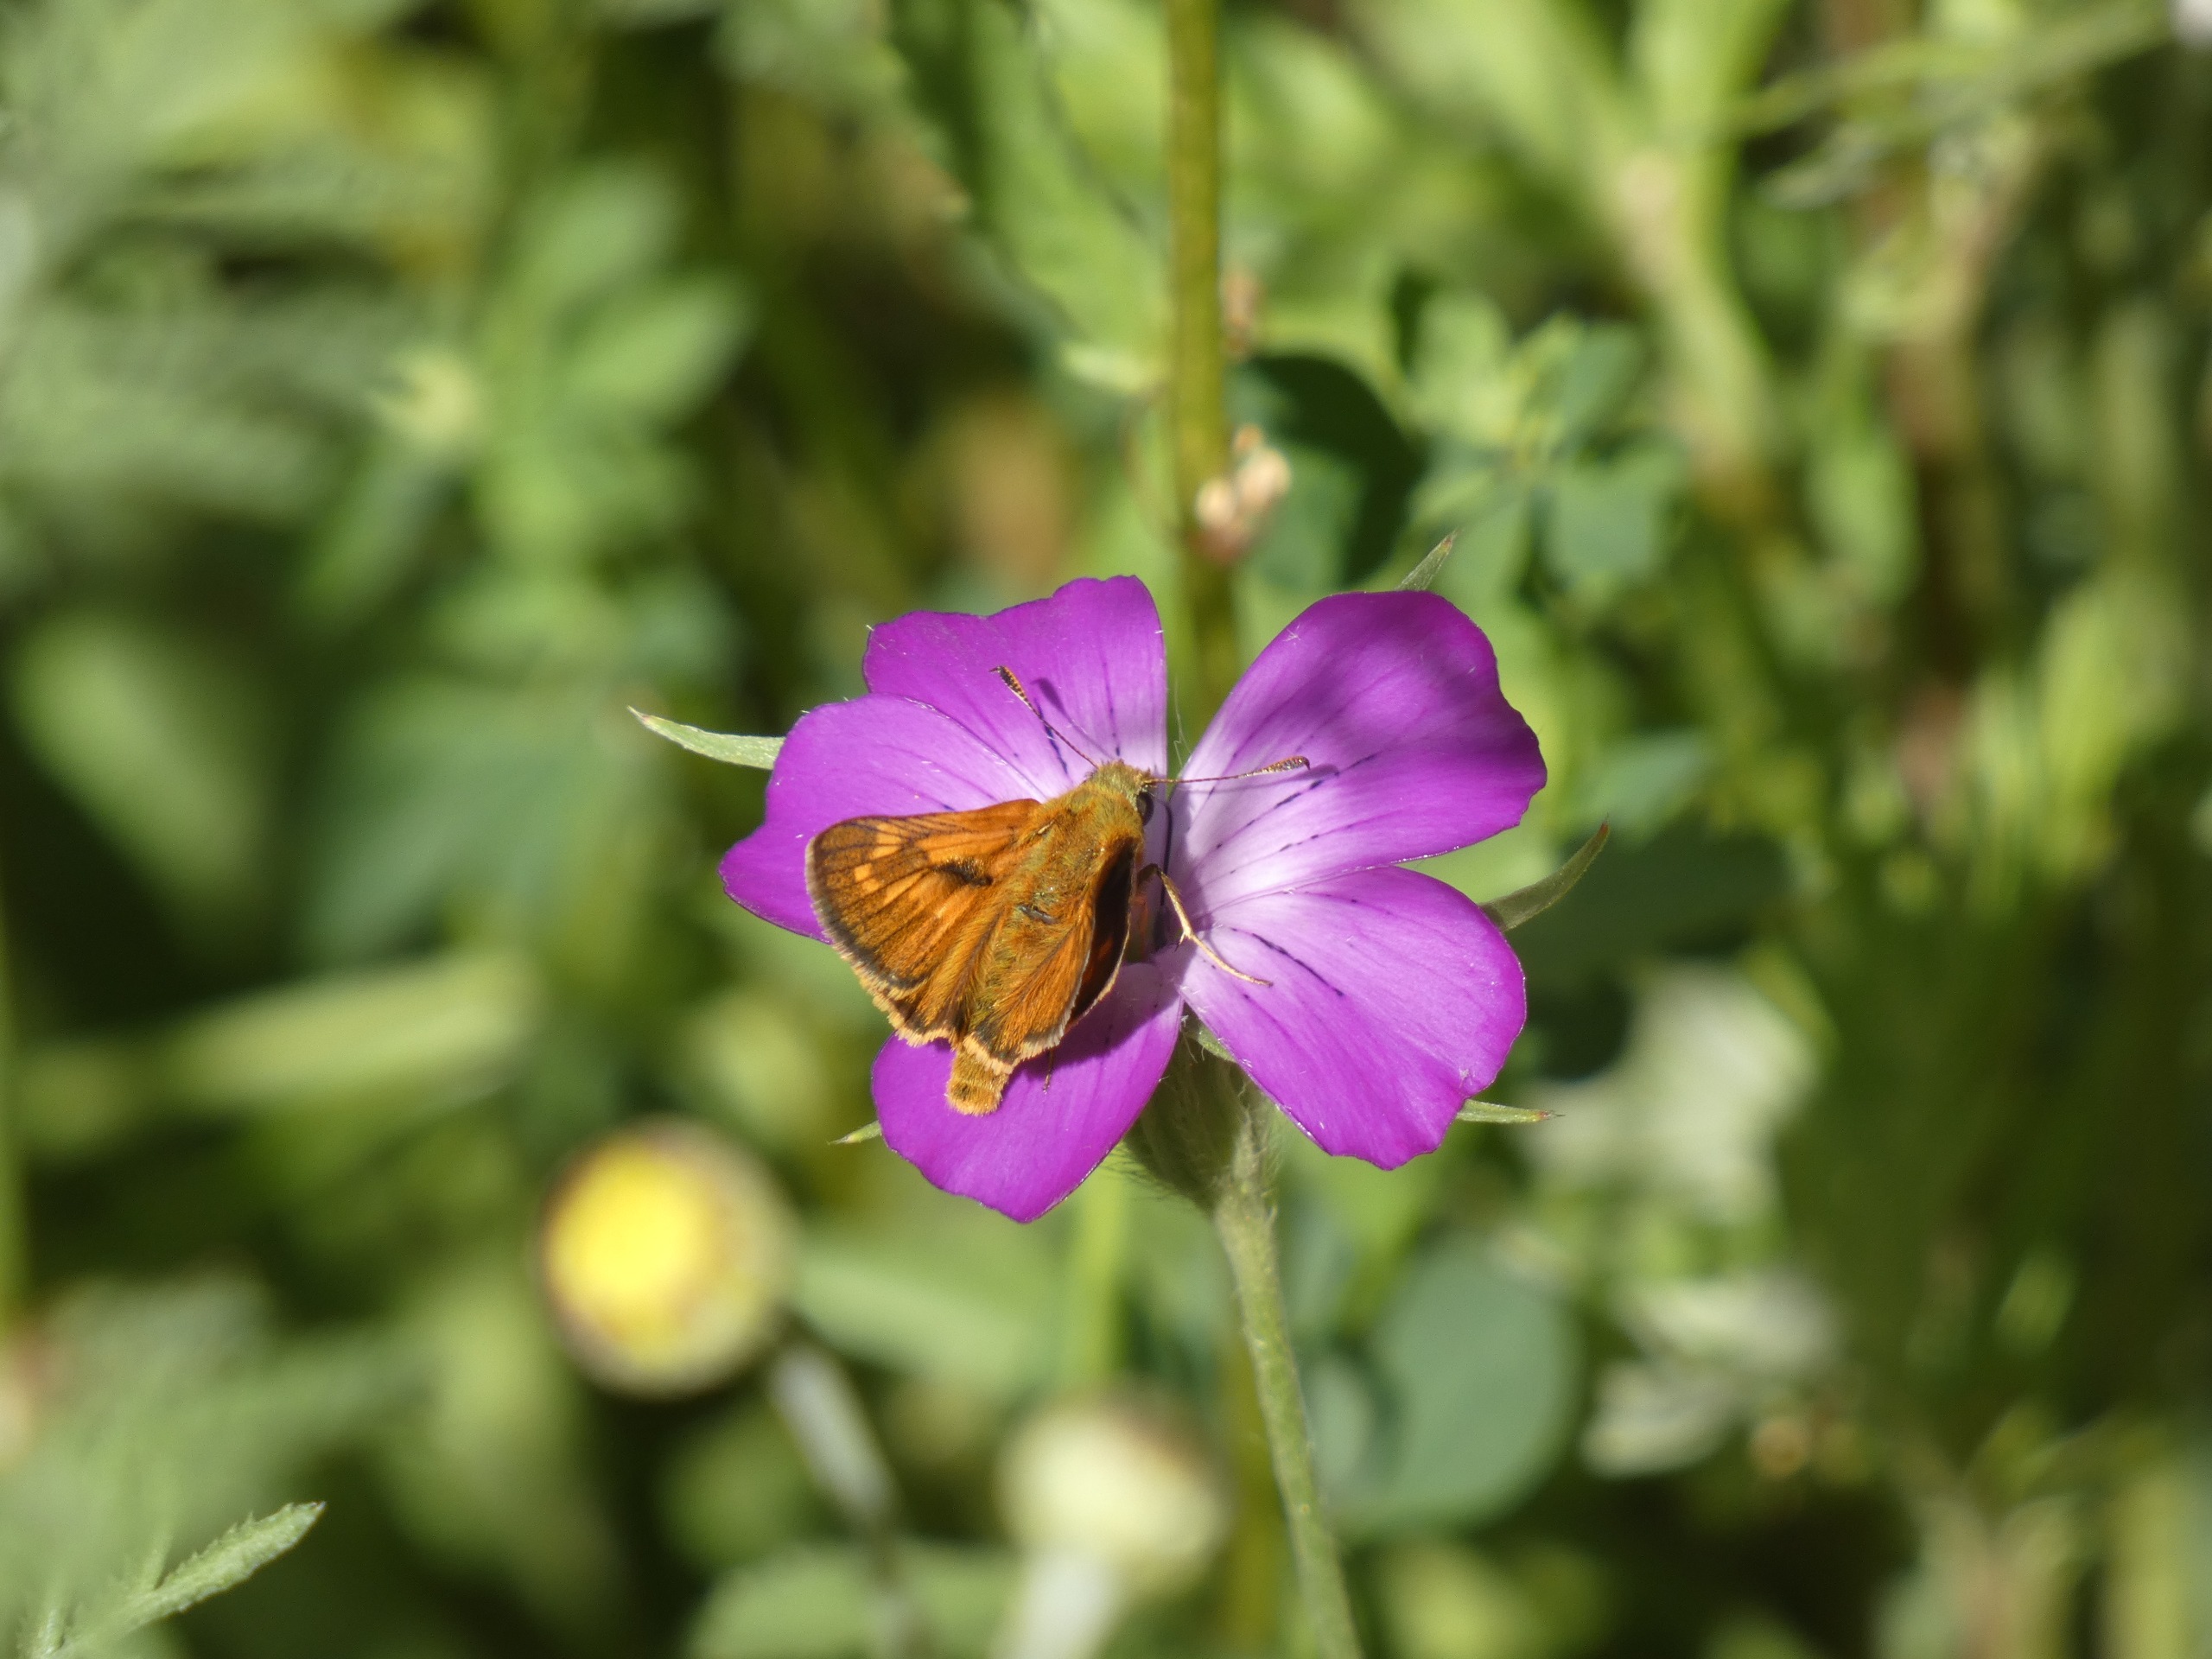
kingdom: Animalia
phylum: Arthropoda
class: Insecta
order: Lepidoptera
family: Hesperiidae
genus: Ochlodes
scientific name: Ochlodes venata
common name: Stor bredpande
